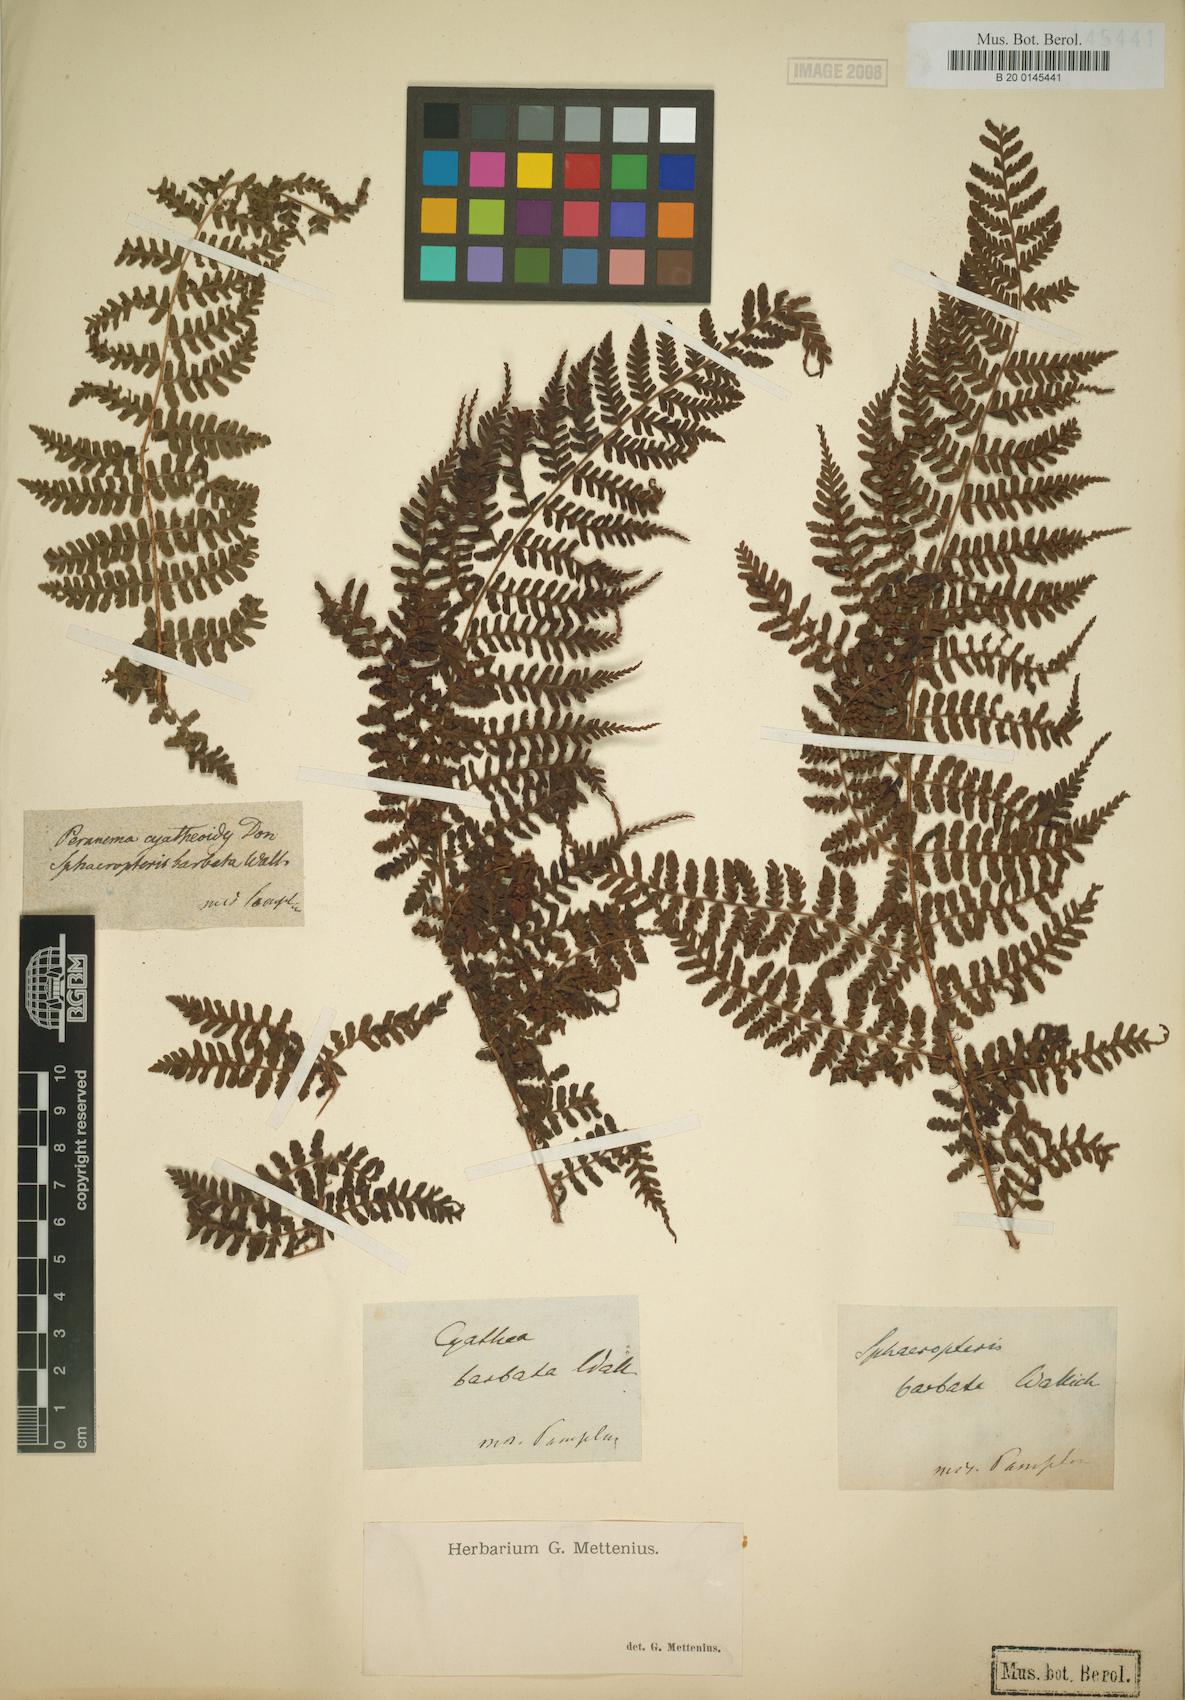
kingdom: Plantae
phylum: Tracheophyta
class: Polypodiopsida
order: Polypodiales
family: Dryopteridaceae
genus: Dryopteris
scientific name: Dryopteris peranema
